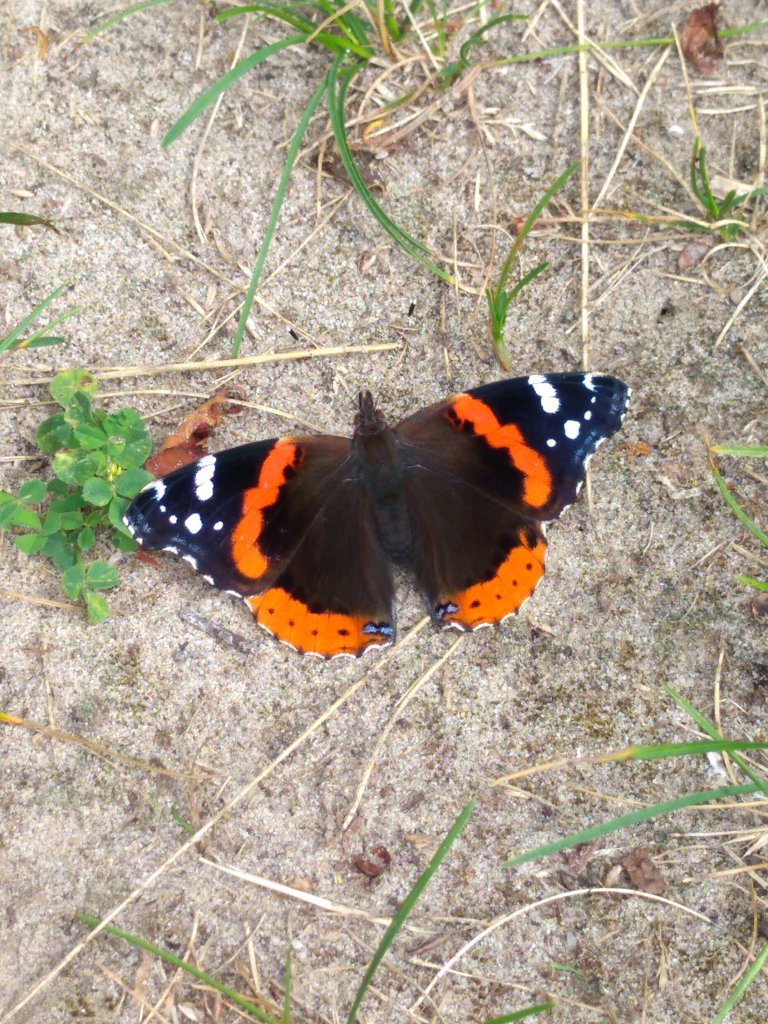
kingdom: Animalia
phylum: Arthropoda
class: Insecta
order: Lepidoptera
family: Nymphalidae
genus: Vanessa
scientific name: Vanessa atalanta
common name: Red Admiral
